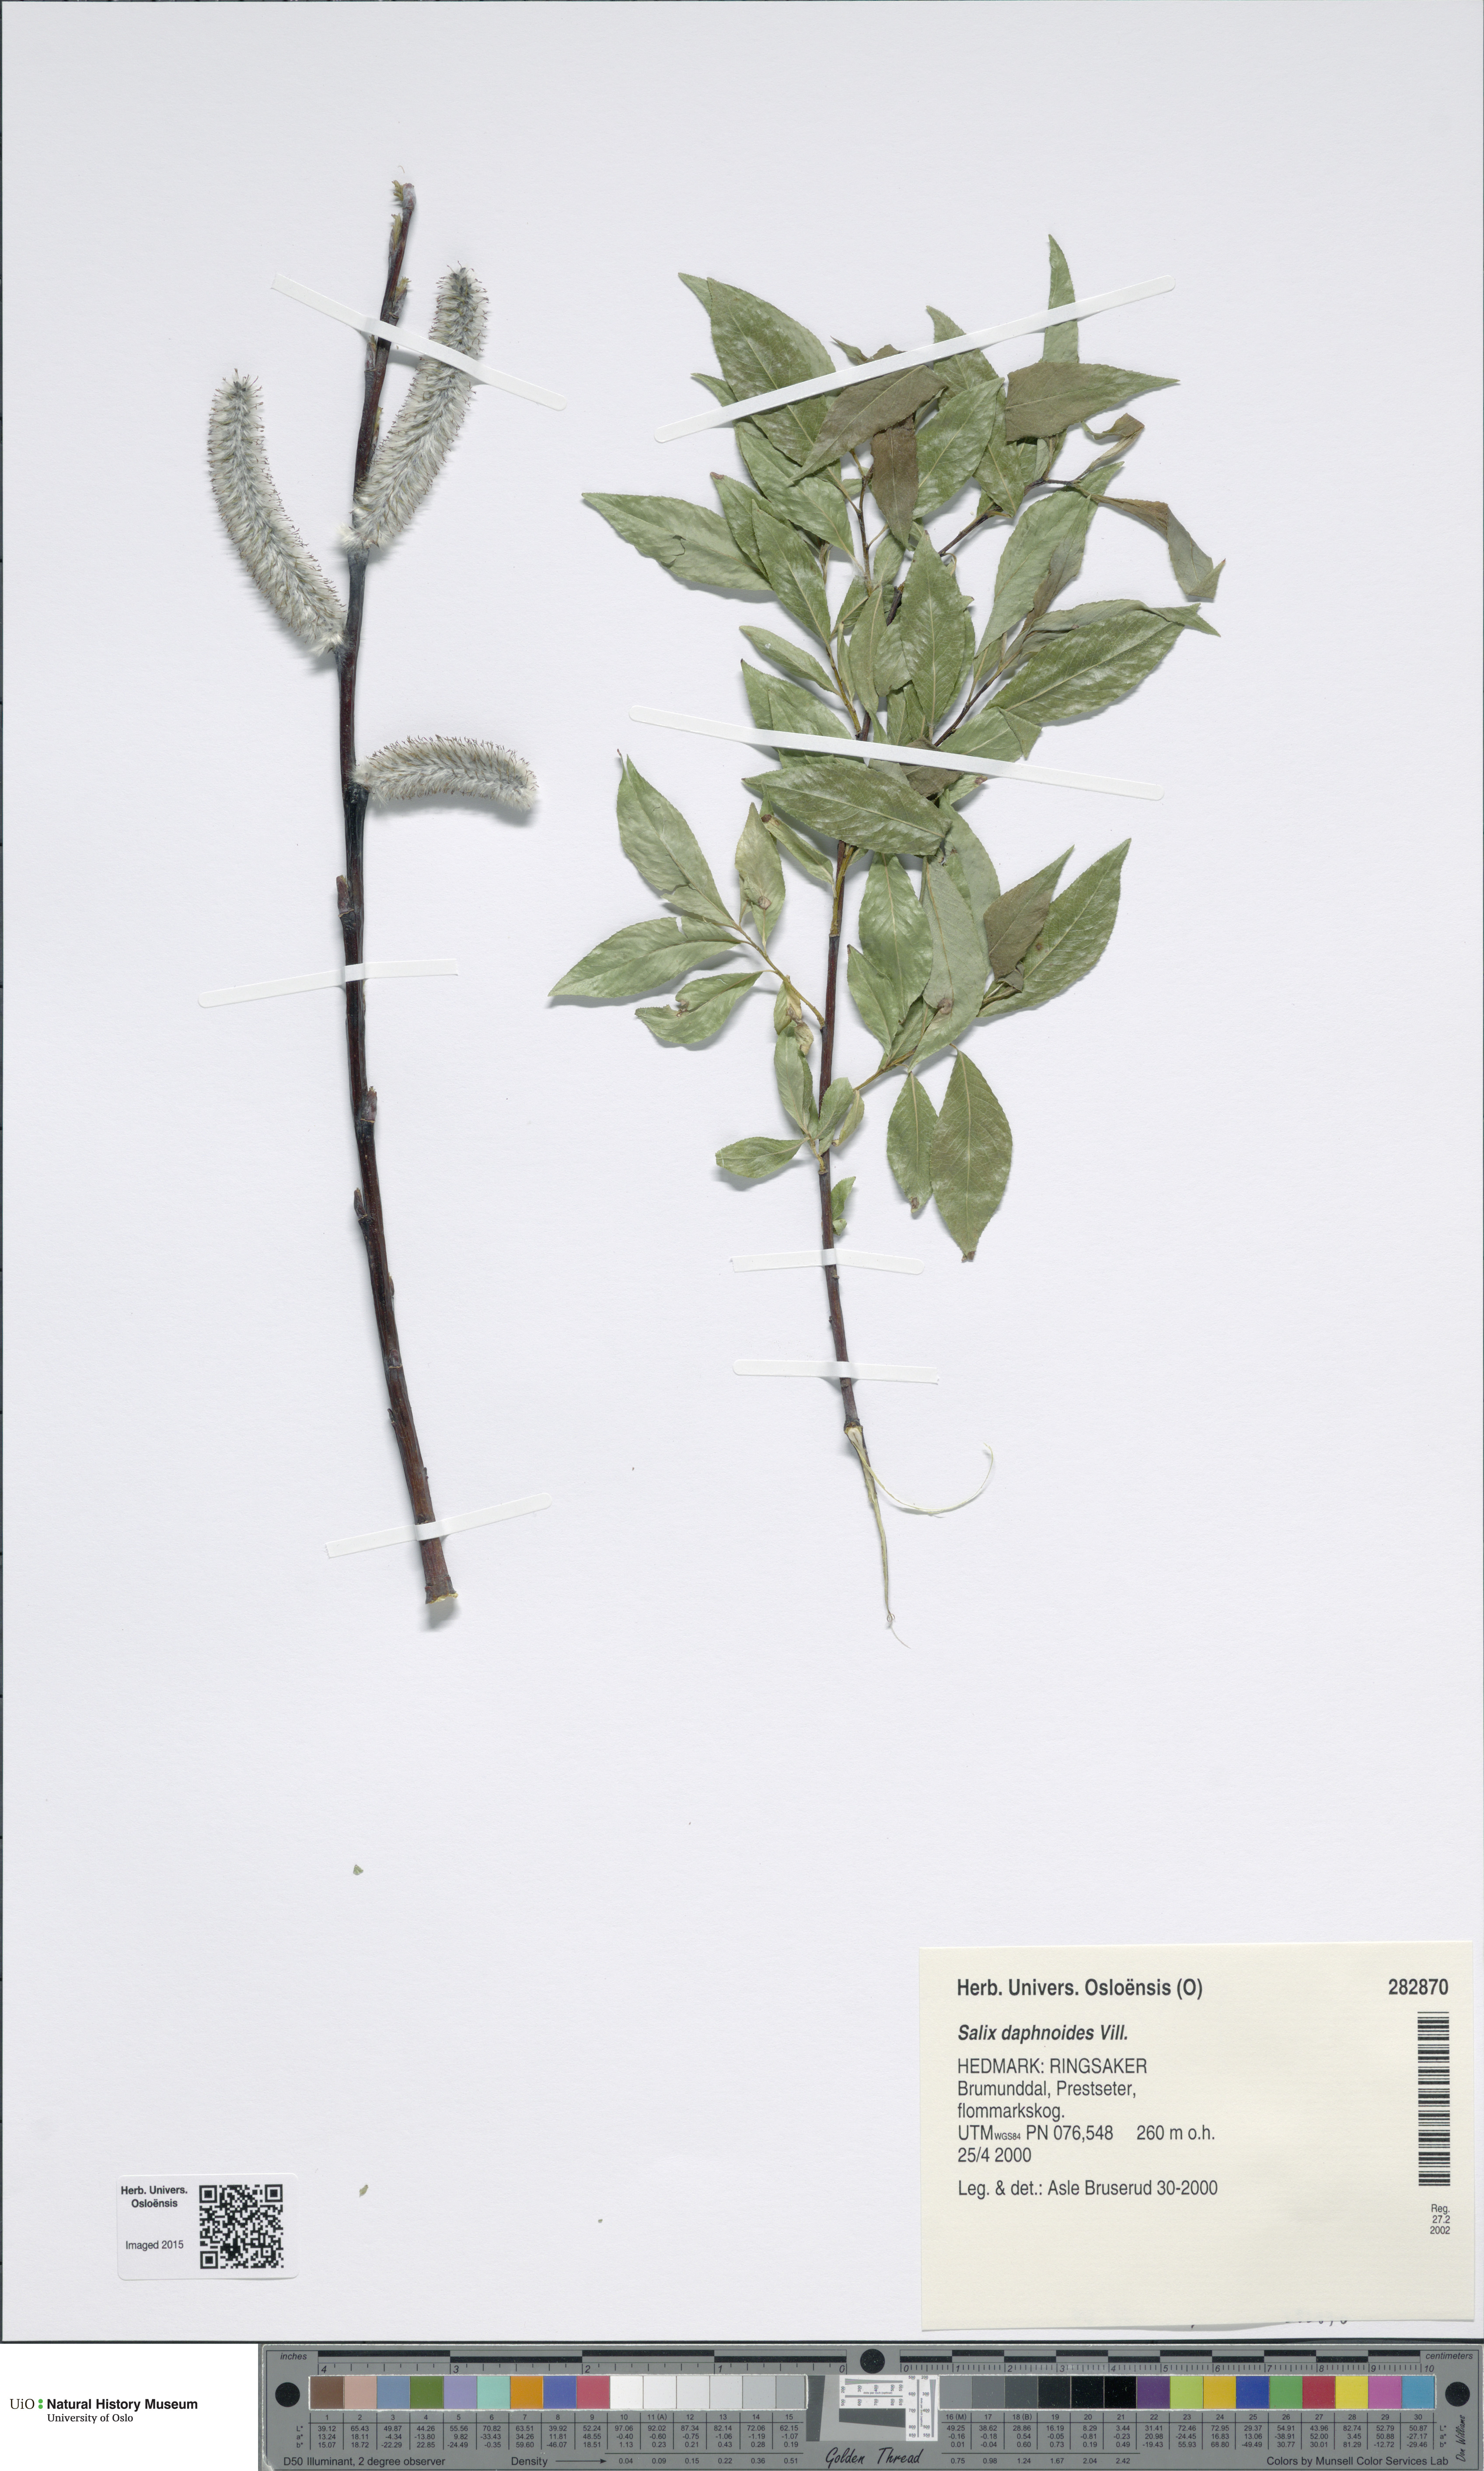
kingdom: Plantae
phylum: Tracheophyta
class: Magnoliopsida
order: Malpighiales
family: Salicaceae
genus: Salix
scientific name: Salix daphnoides
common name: European violet-willow
